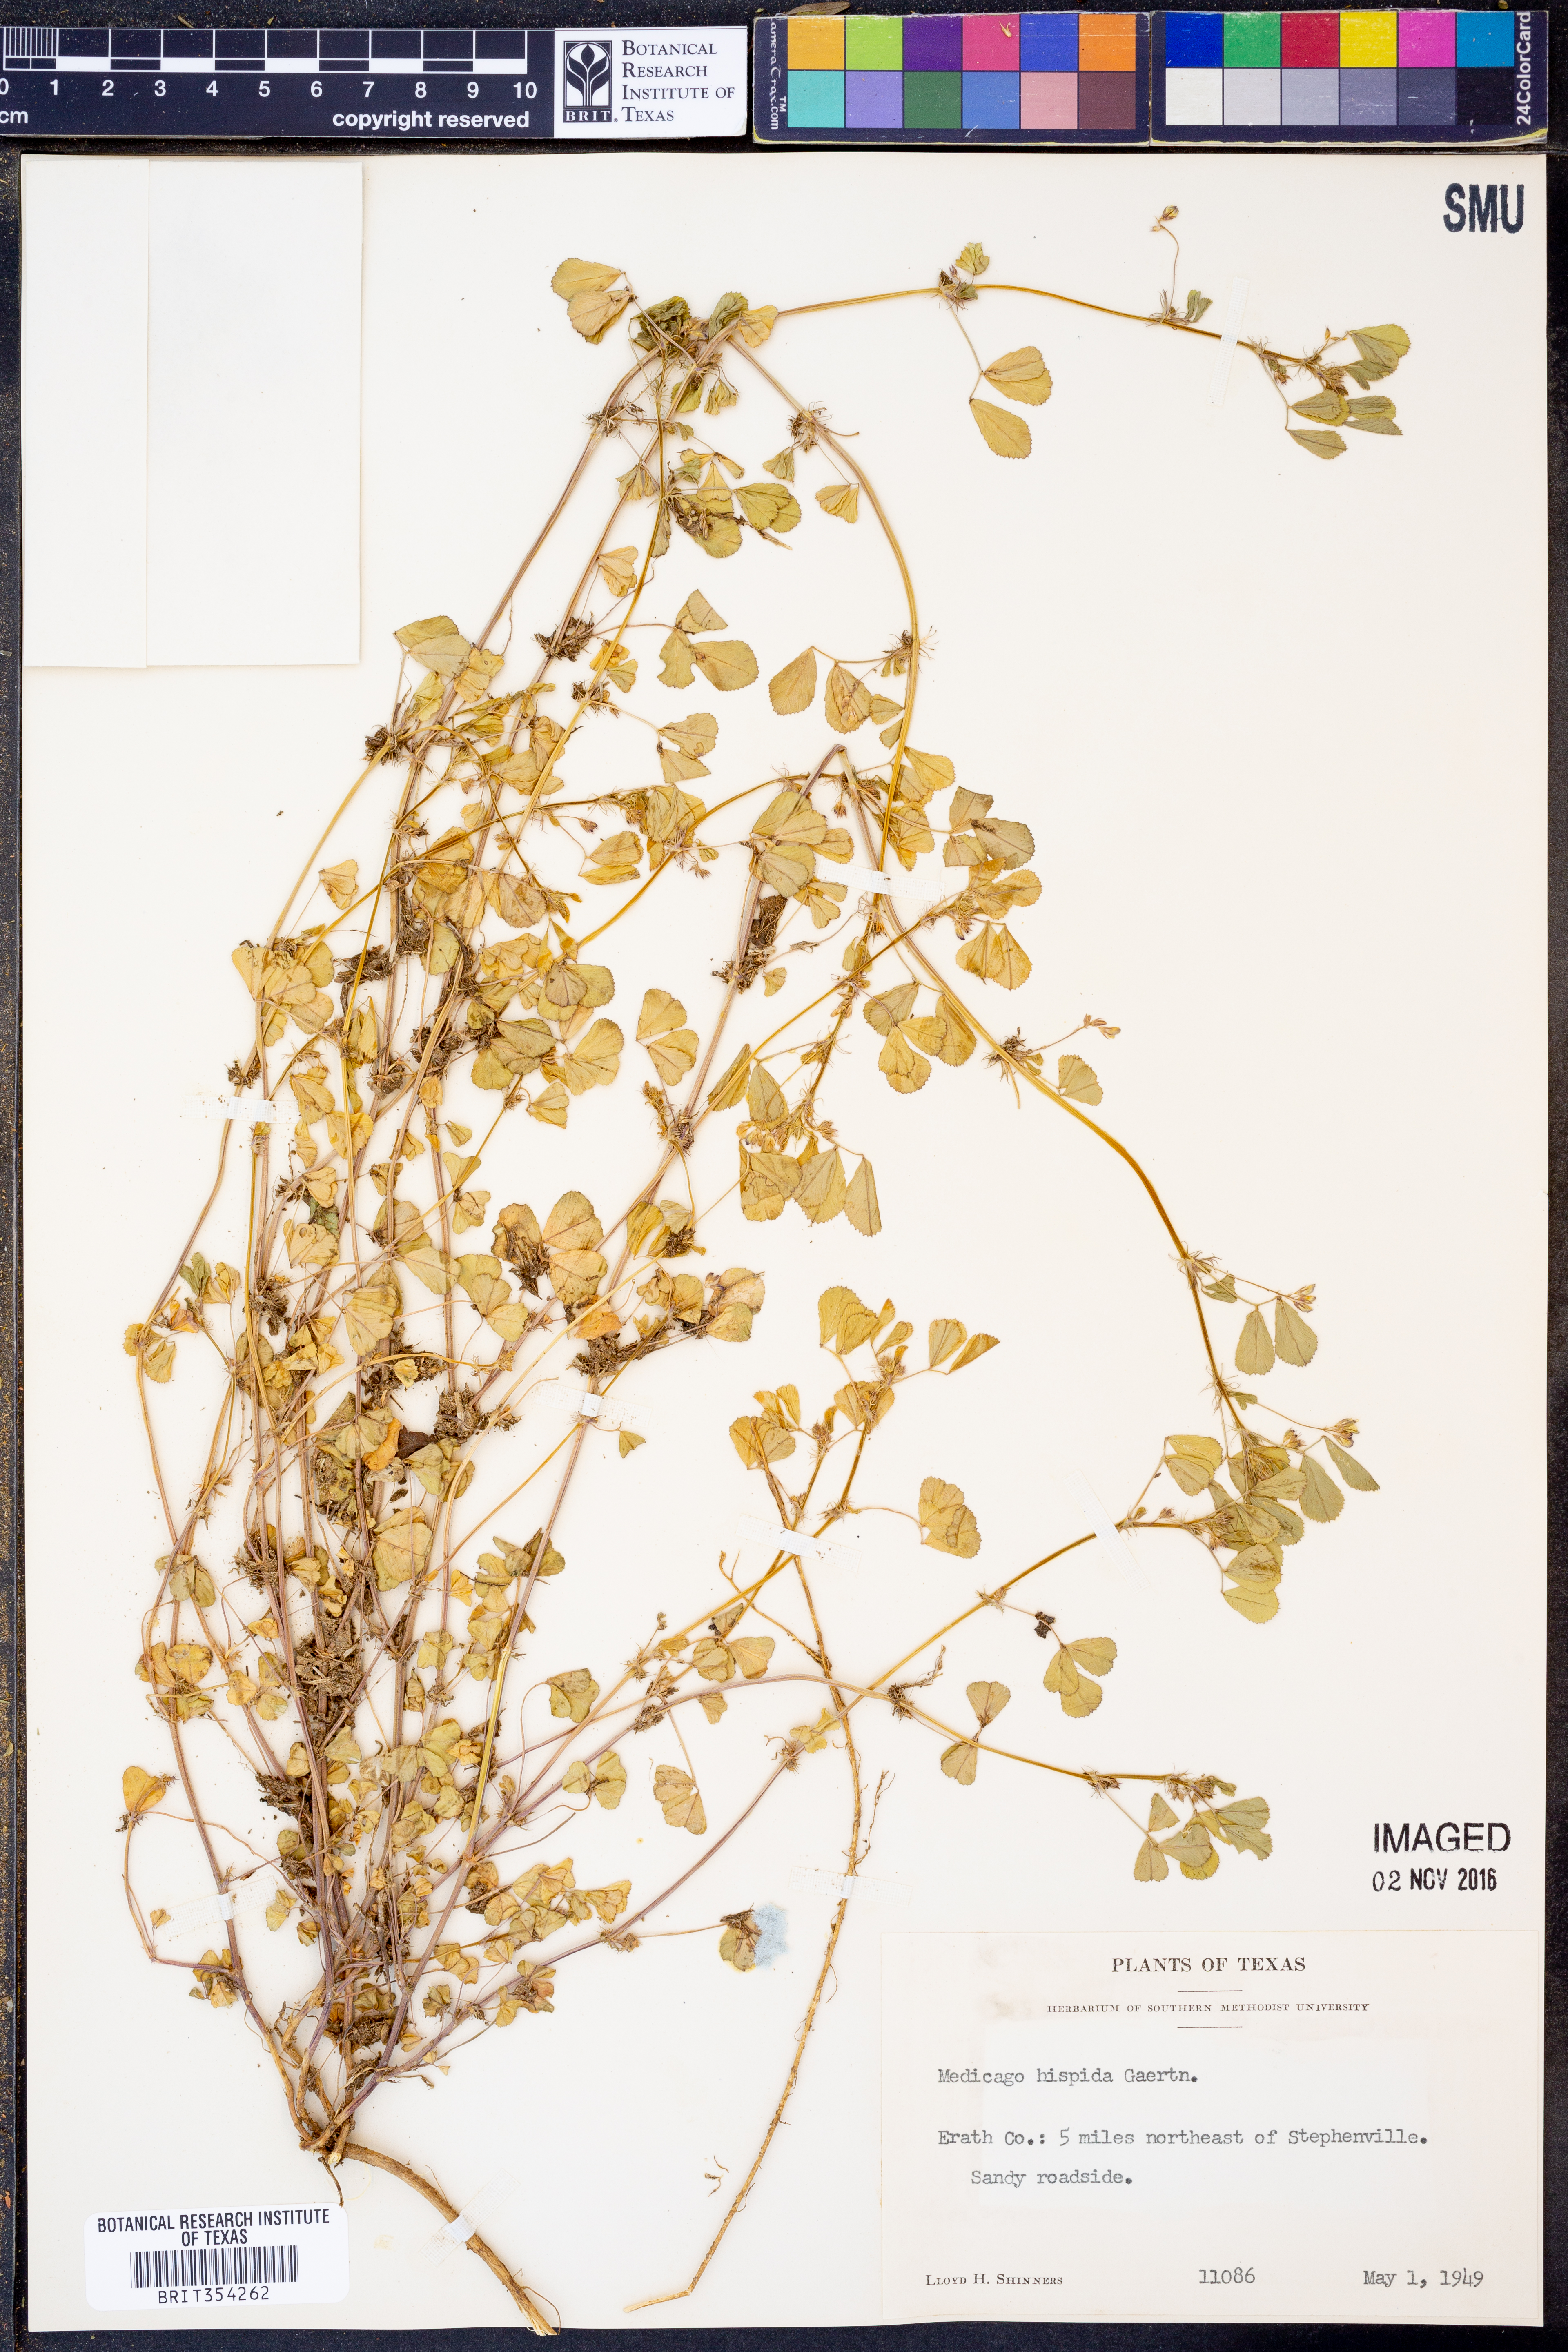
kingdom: Plantae
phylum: Tracheophyta
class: Magnoliopsida
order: Fabales
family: Fabaceae
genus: Medicago
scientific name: Medicago
